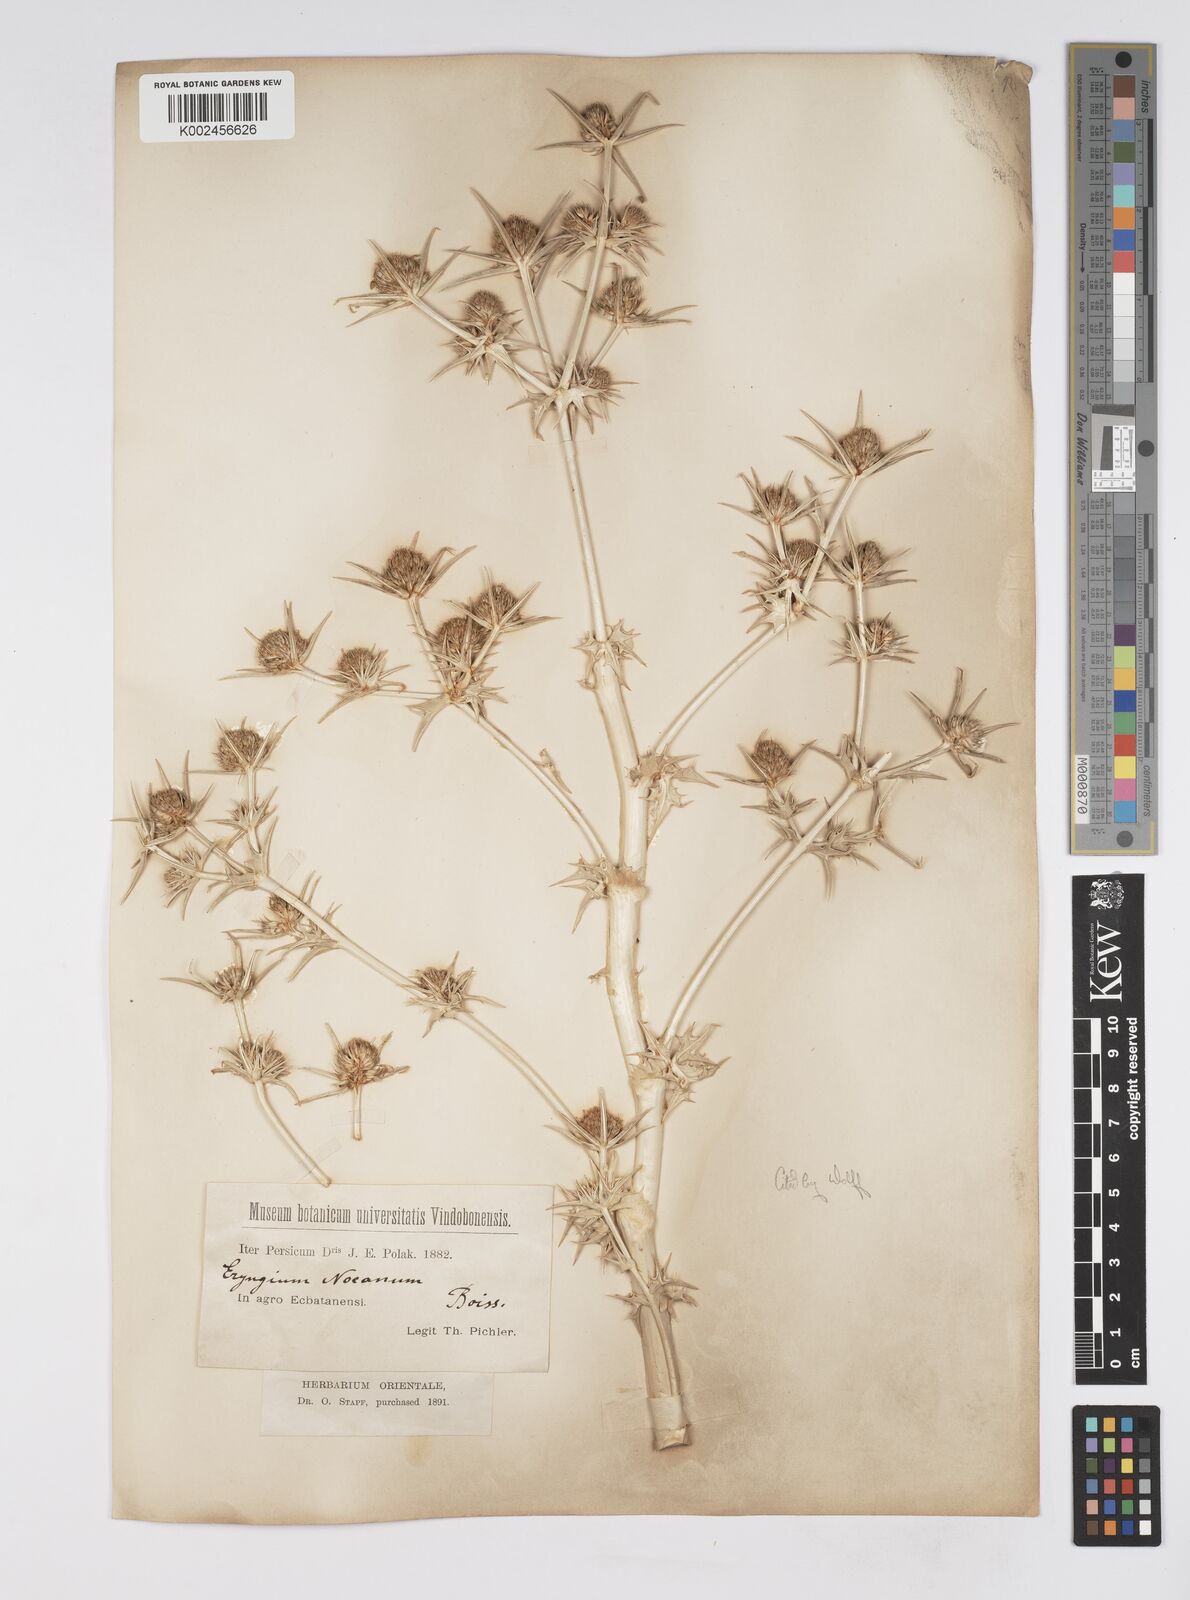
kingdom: Plantae
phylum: Tracheophyta
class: Magnoliopsida
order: Apiales
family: Apiaceae
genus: Eryngium
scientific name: Eryngium billardierei
